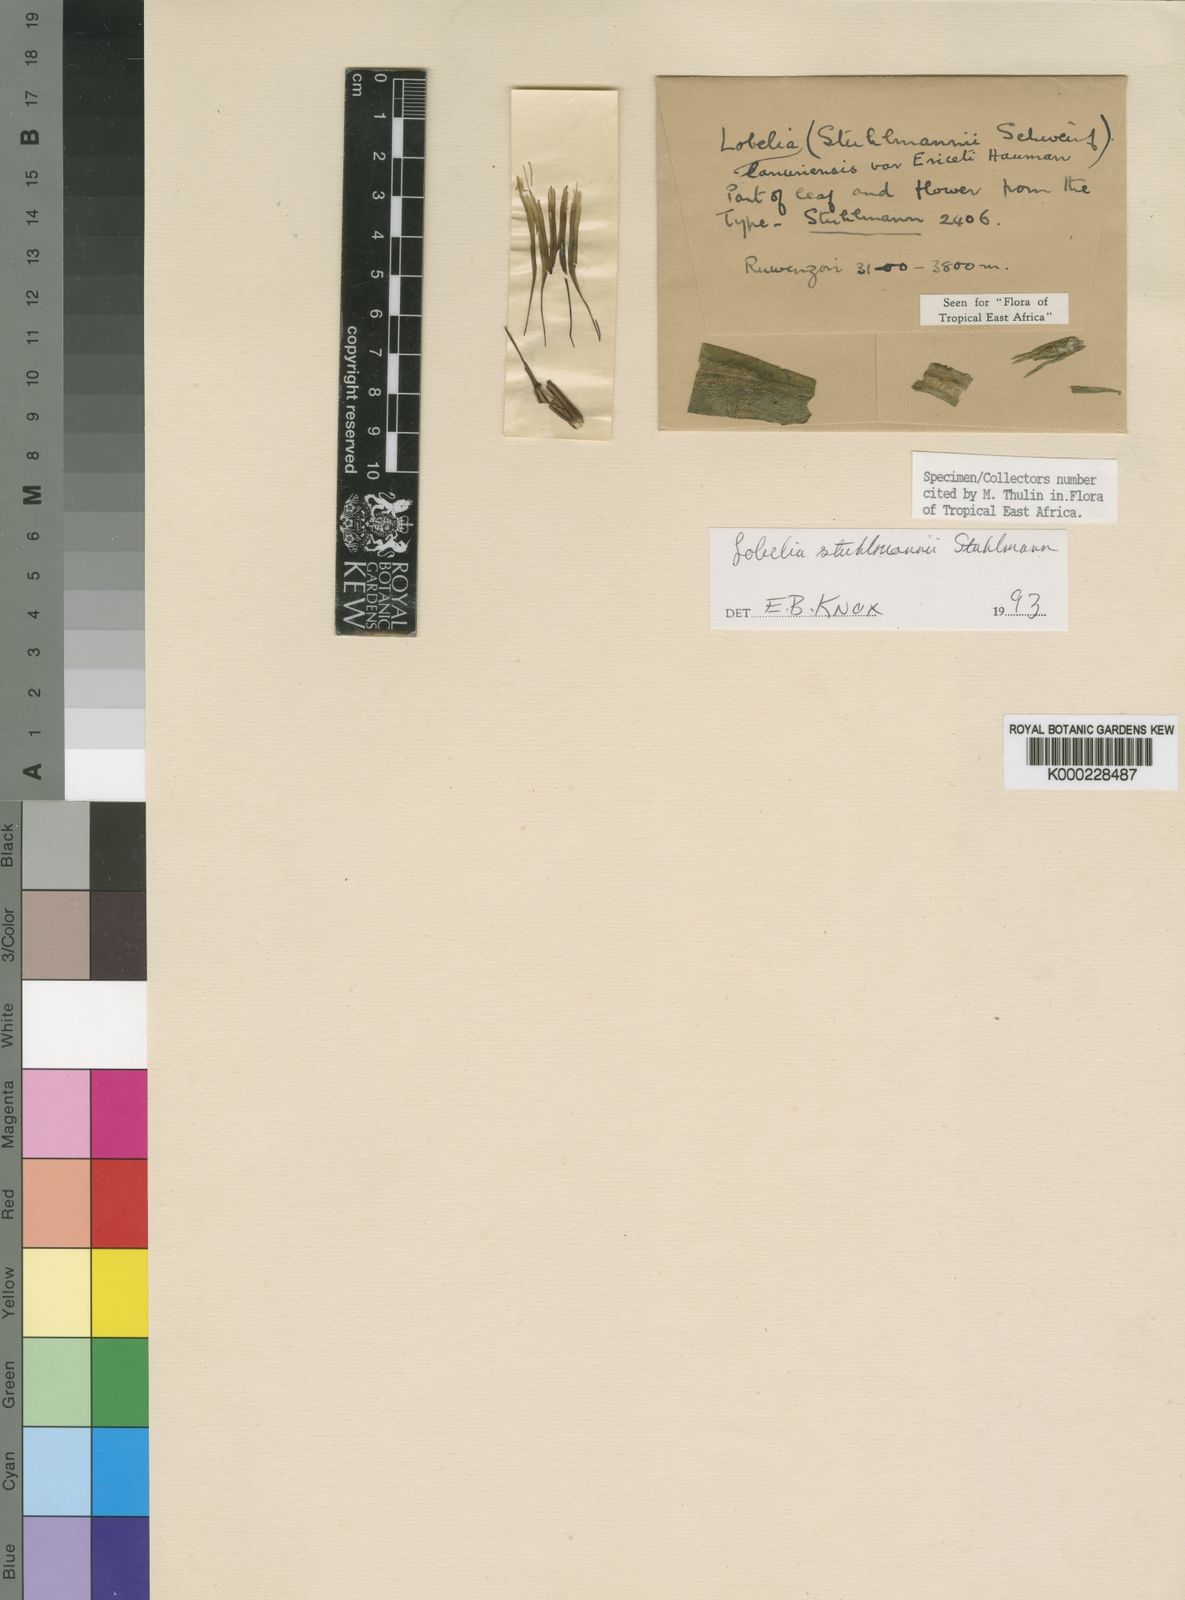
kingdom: Plantae
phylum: Tracheophyta
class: Magnoliopsida
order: Asterales
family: Campanulaceae
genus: Lobelia
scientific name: Lobelia
